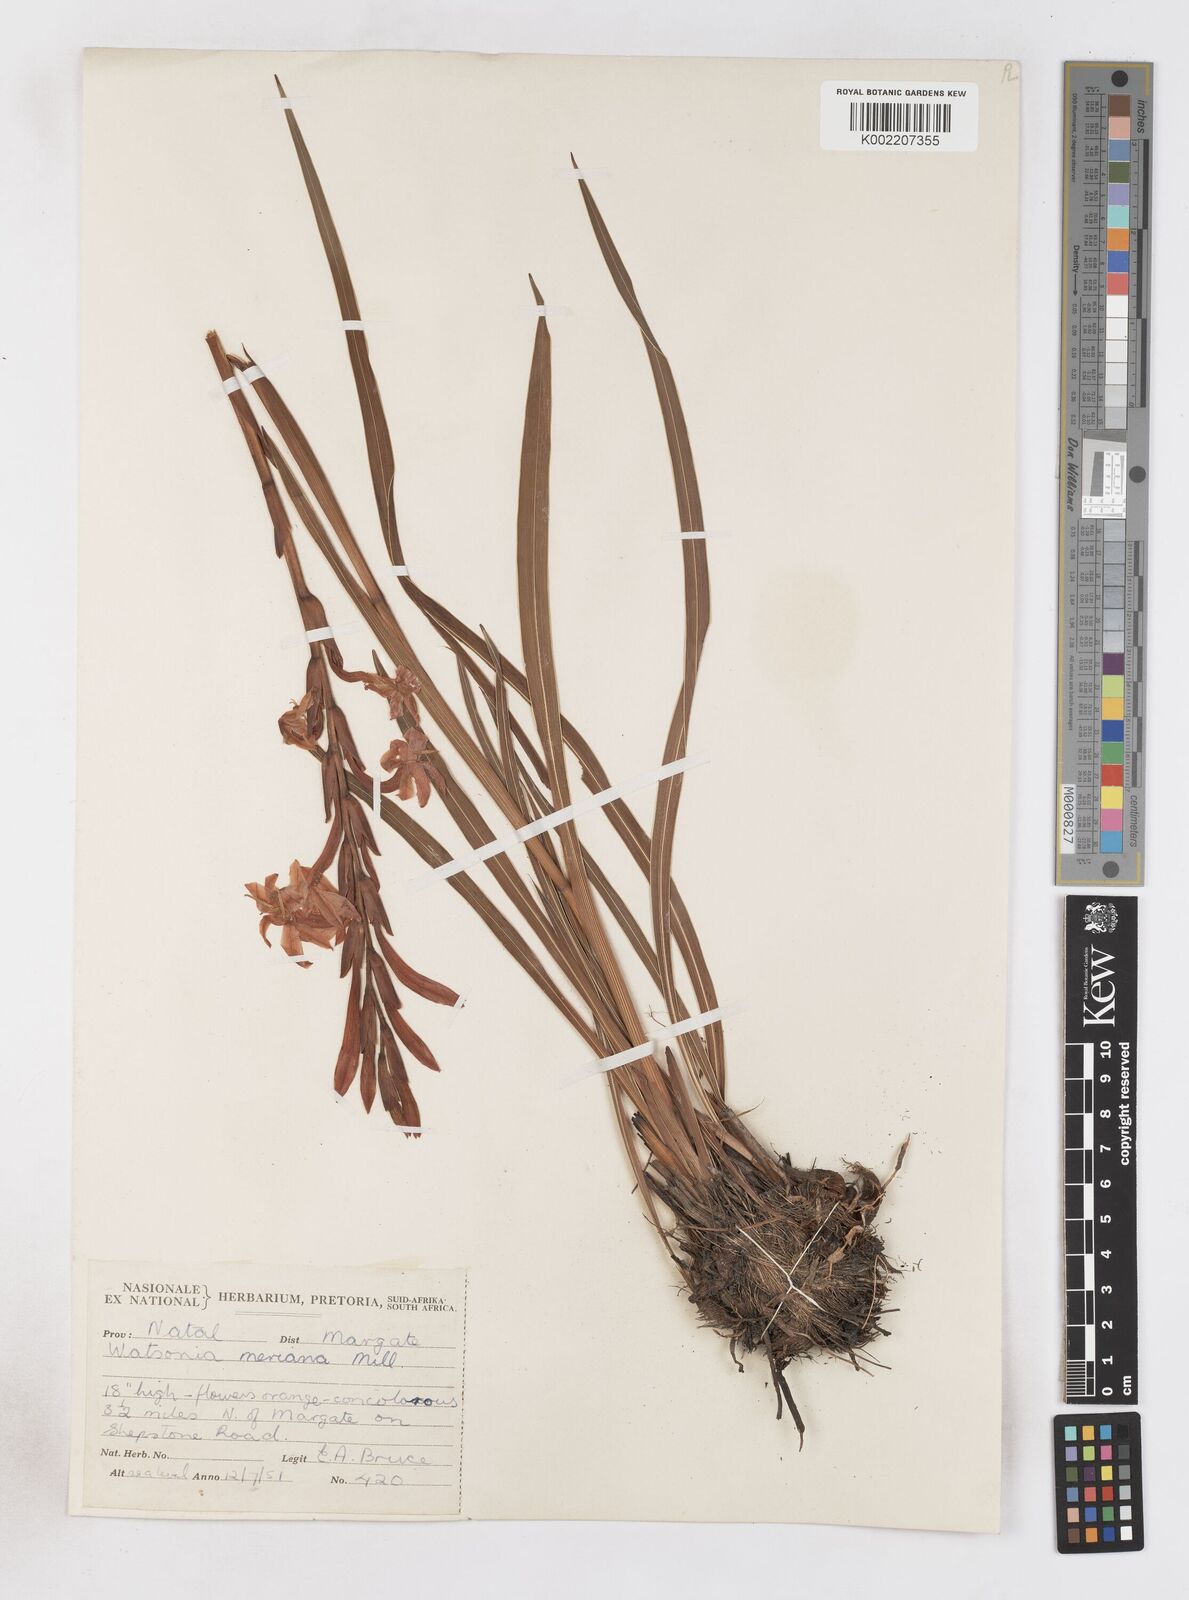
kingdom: Plantae
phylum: Tracheophyta
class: Liliopsida
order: Asparagales
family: Iridaceae
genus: Watsonia
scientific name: Watsonia pillansii
